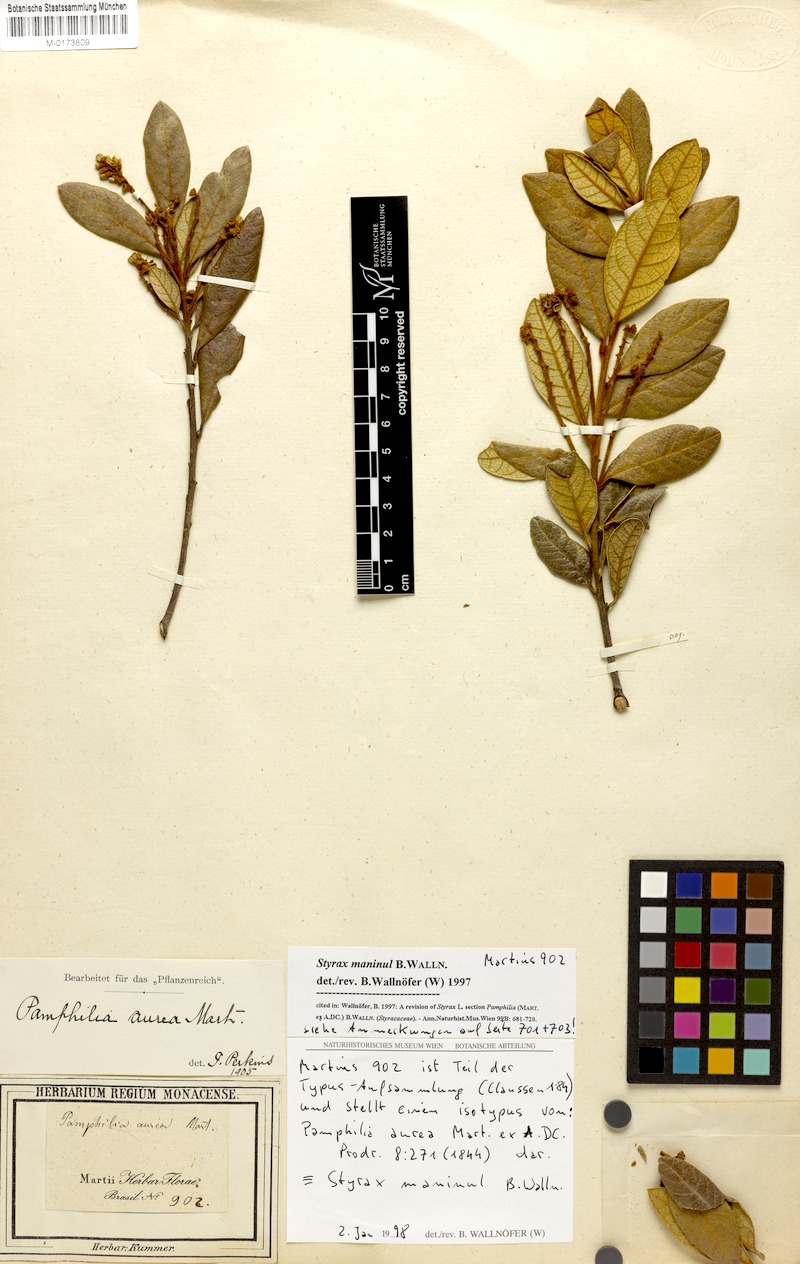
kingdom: Plantae
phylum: Tracheophyta
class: Magnoliopsida
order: Ericales
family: Styracaceae
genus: Styrax
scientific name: Styrax maninul
